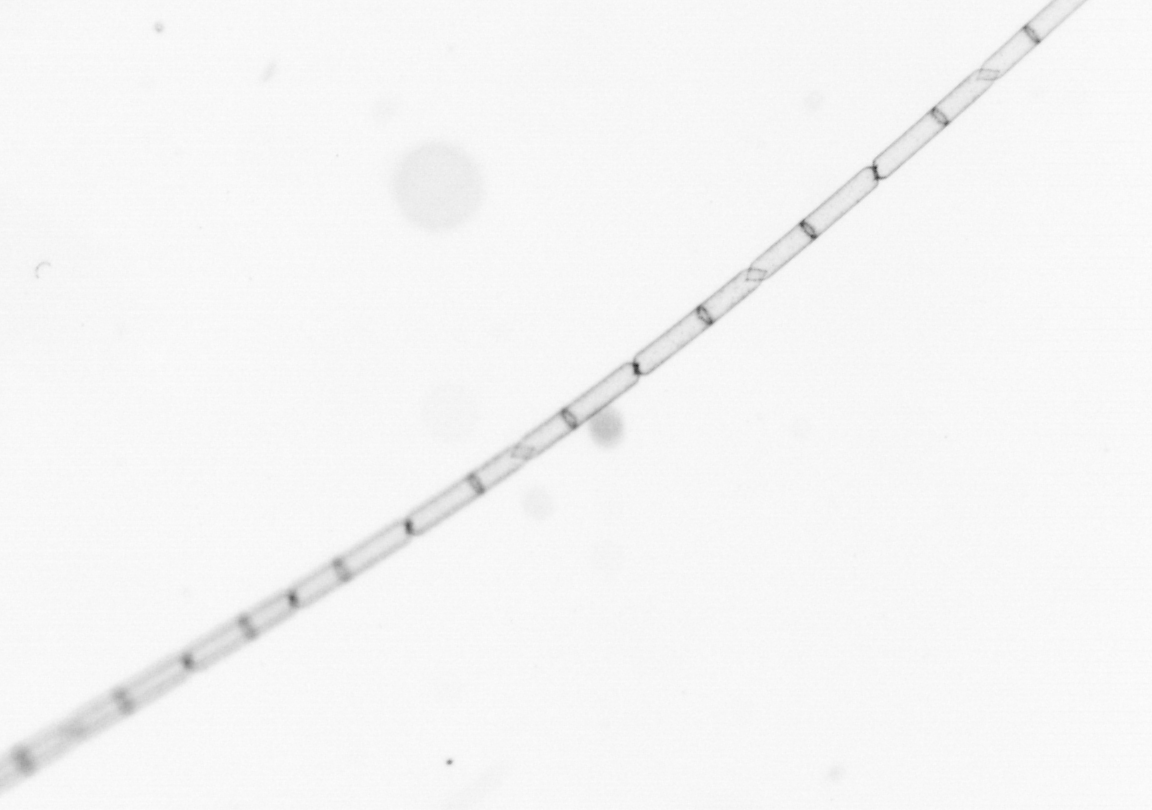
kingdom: Chromista
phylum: Ochrophyta
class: Bacillariophyceae
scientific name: Bacillariophyceae
